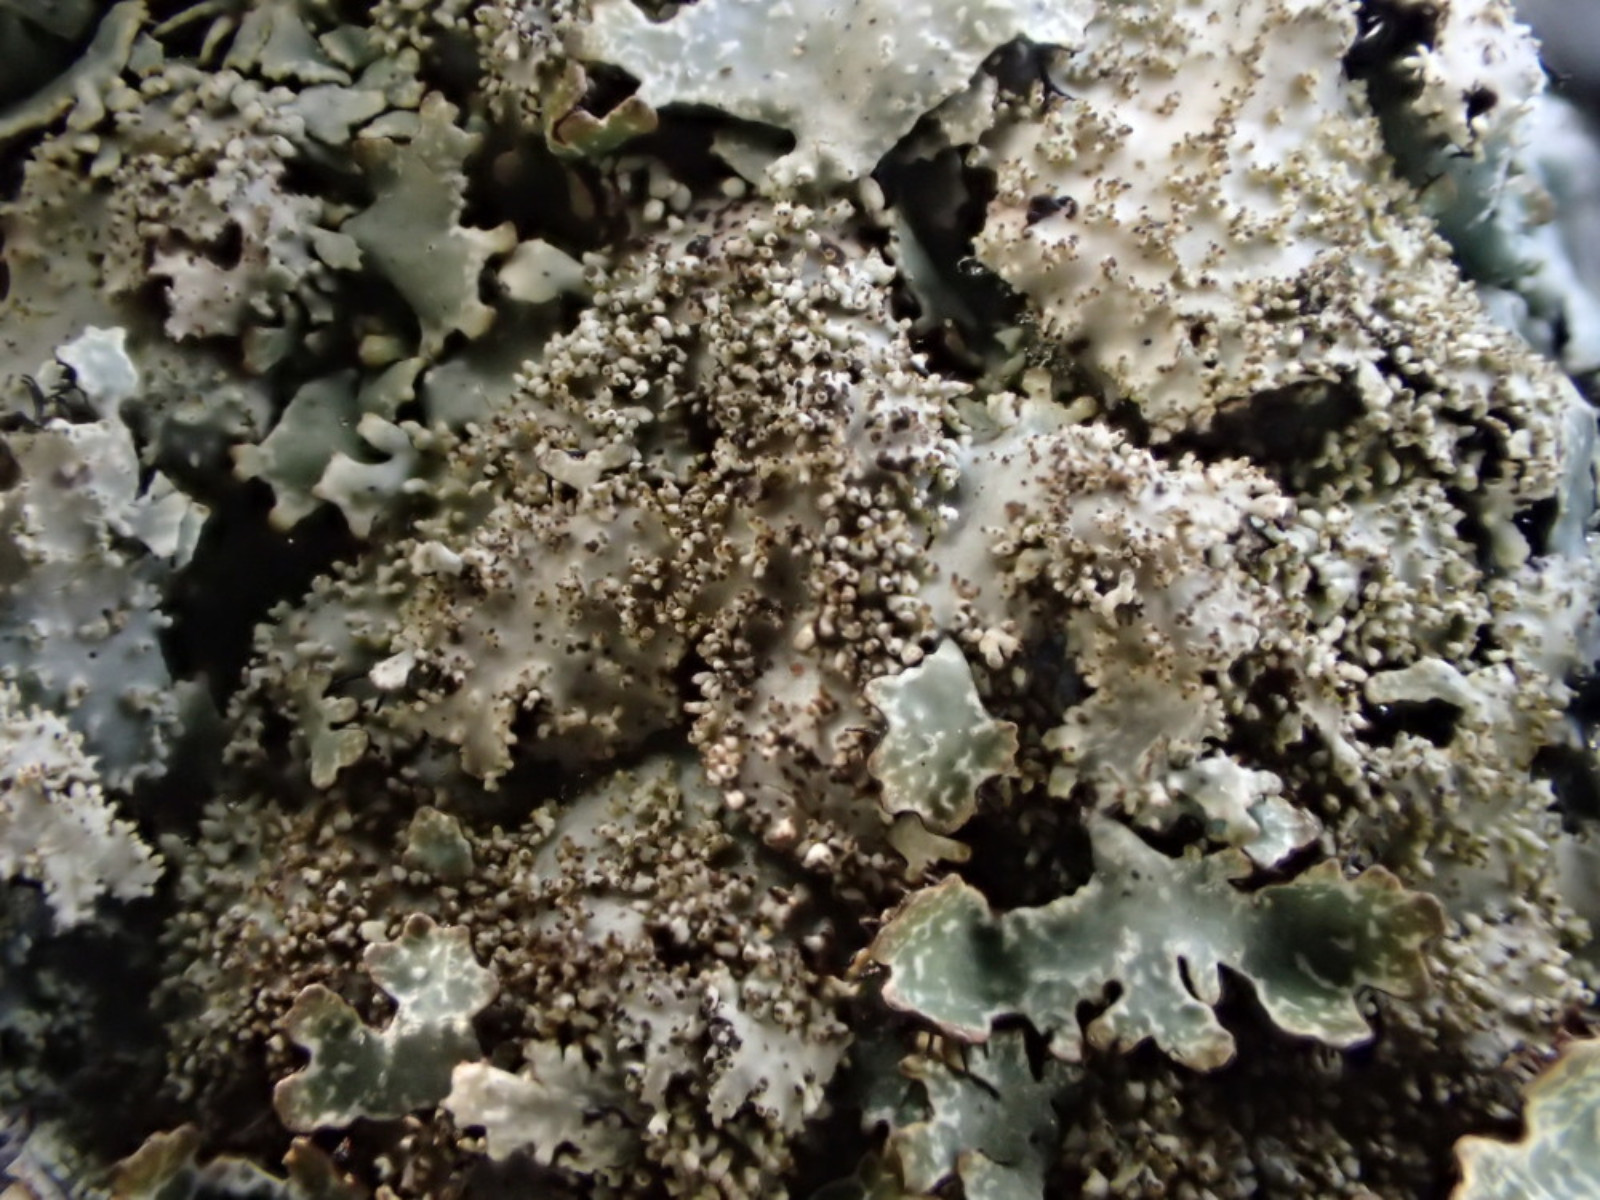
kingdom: Fungi
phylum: Ascomycota
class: Lecanoromycetes
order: Lecanorales
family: Parmeliaceae
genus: Parmelia
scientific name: Parmelia saxatilis
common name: farve-skållav
